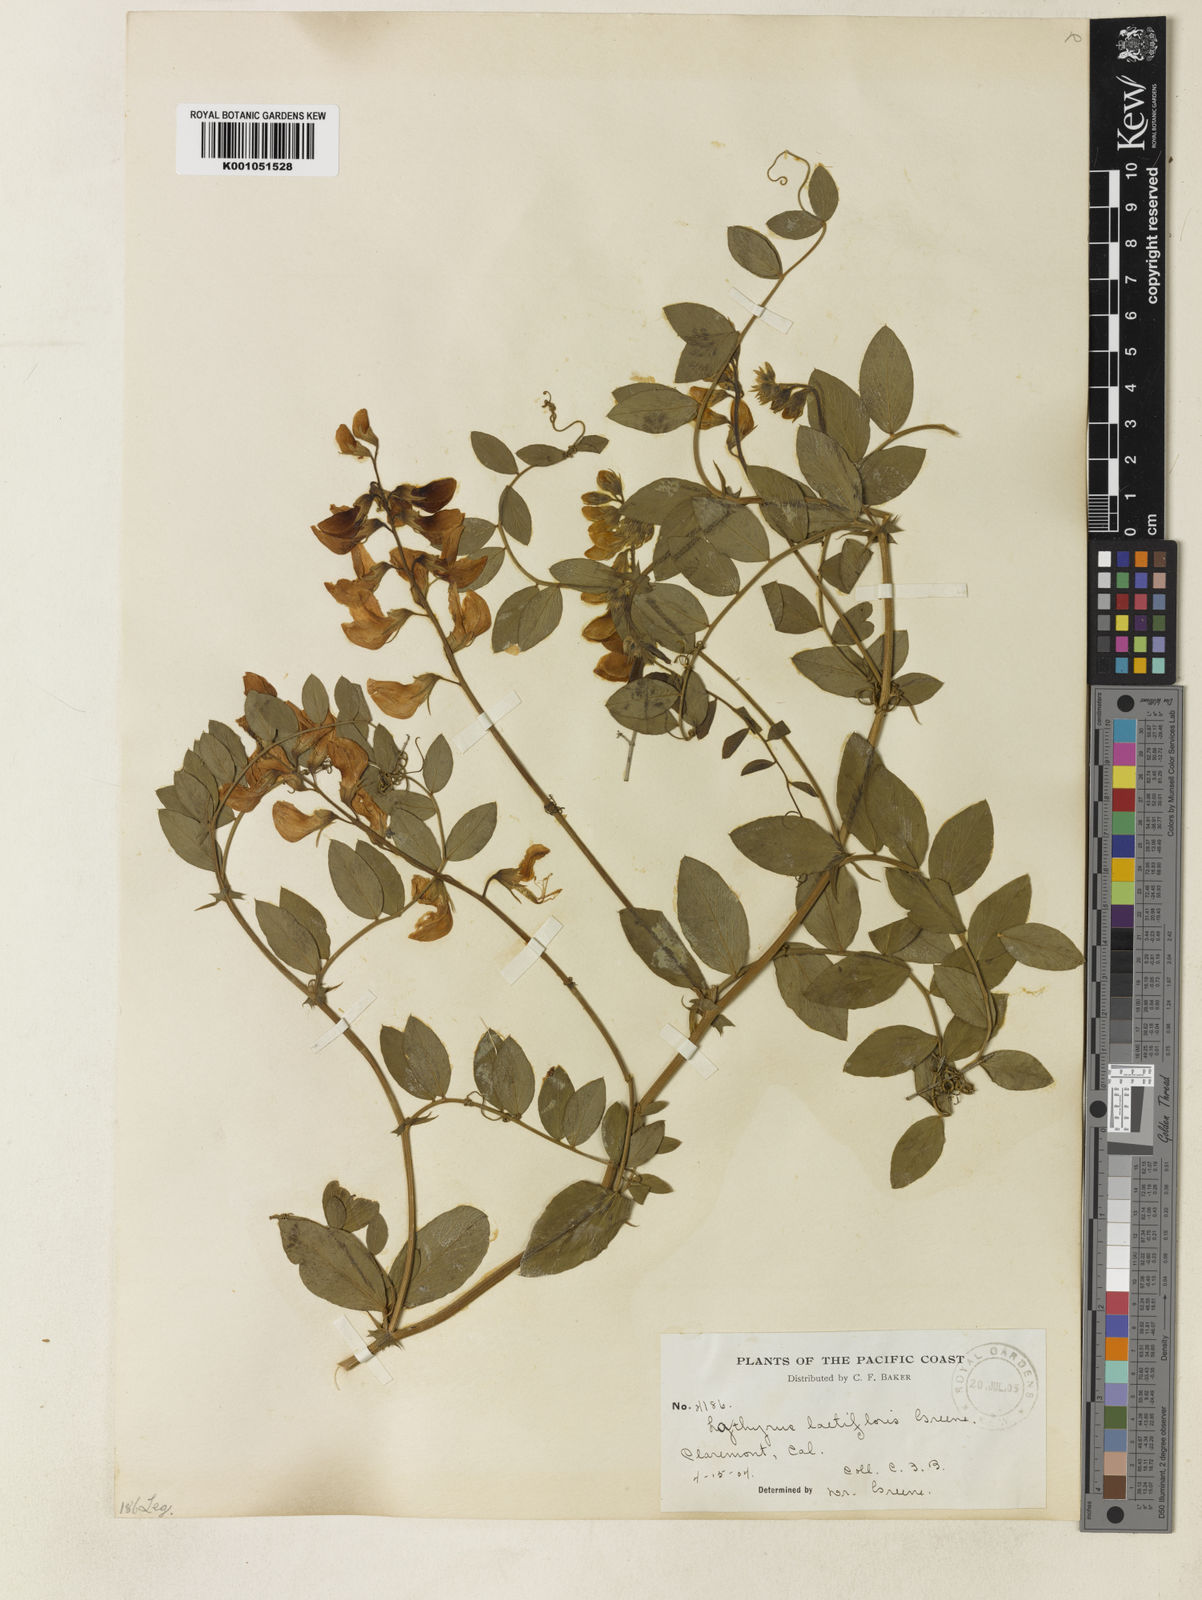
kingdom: Plantae
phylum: Tracheophyta
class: Magnoliopsida
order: Fabales
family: Fabaceae
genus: Lathyrus
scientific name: Lathyrus vestitus
